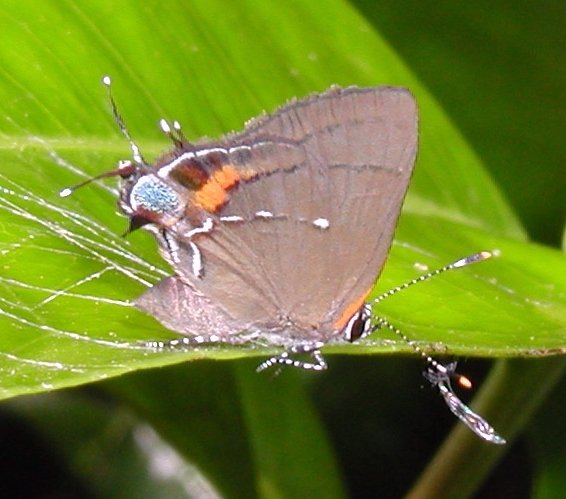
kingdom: Animalia
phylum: Arthropoda
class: Insecta
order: Lepidoptera
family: Lycaenidae
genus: Thecla
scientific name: Thecla angelia
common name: Fulvous Hairstreak
